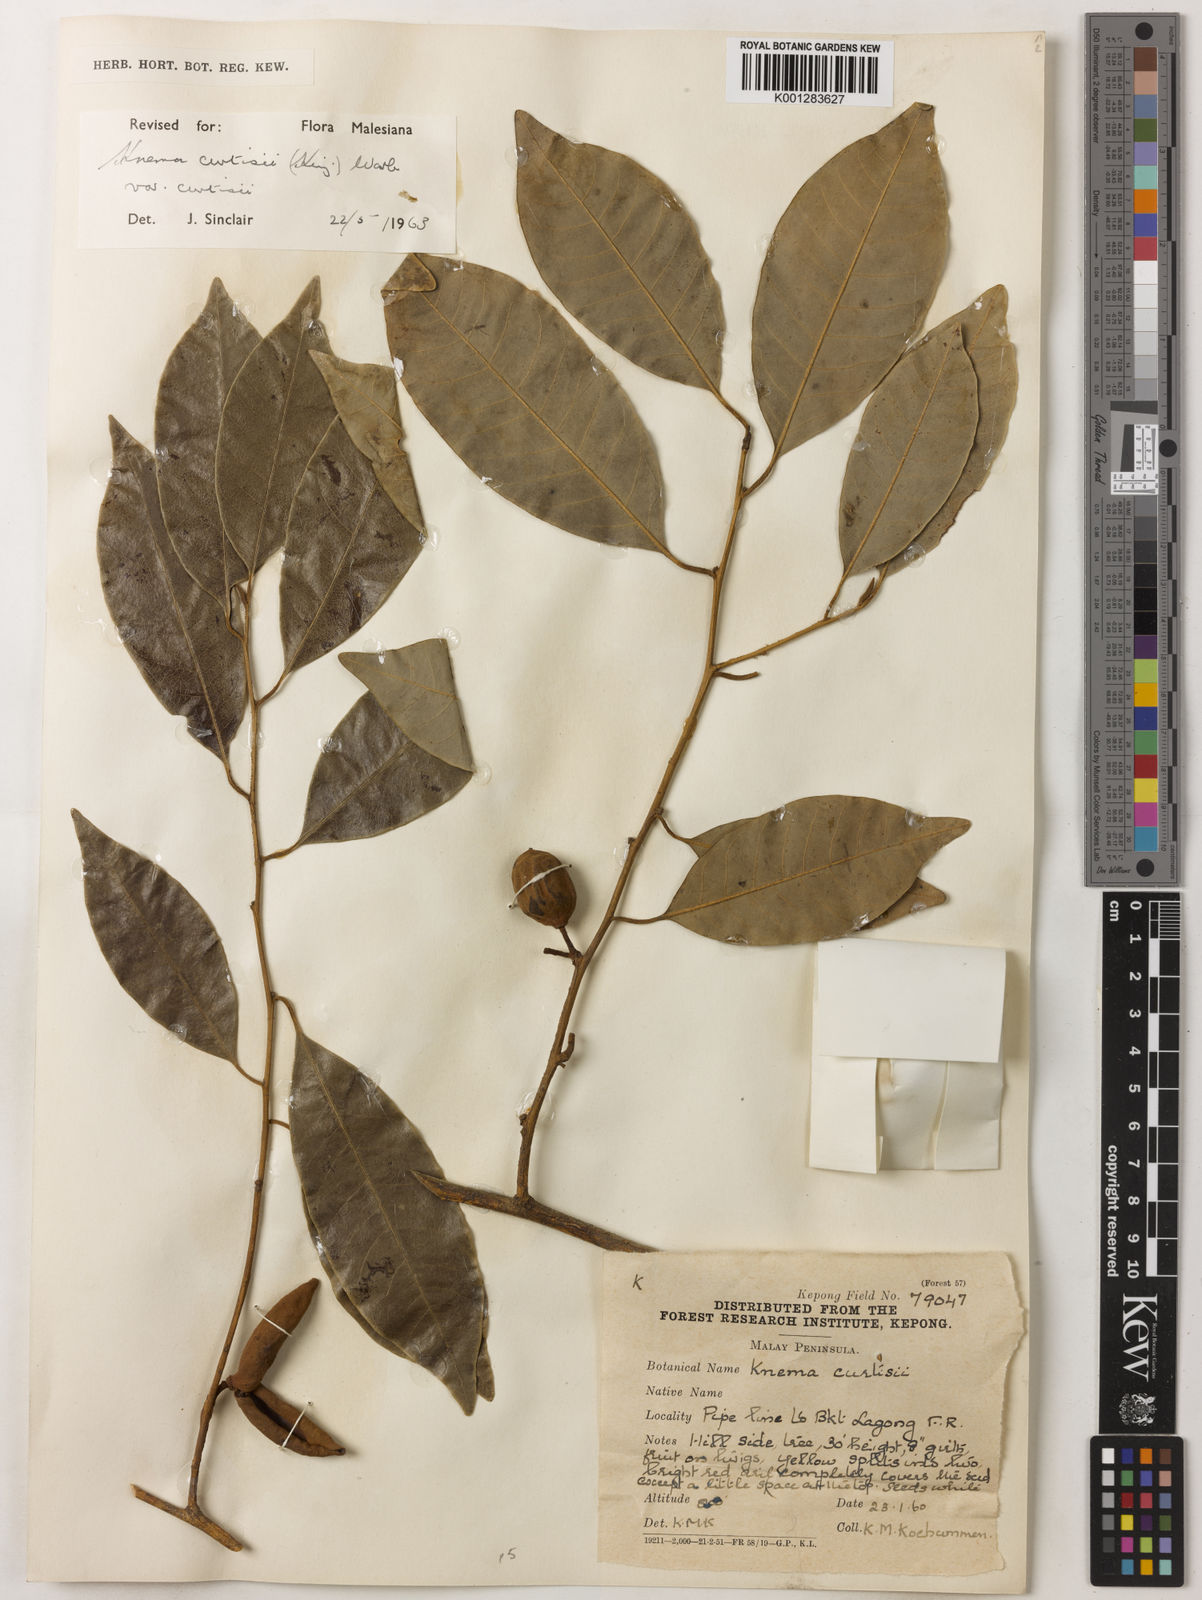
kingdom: Plantae
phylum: Tracheophyta
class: Magnoliopsida
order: Magnoliales
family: Myristicaceae
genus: Knema
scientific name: Knema curtisii
